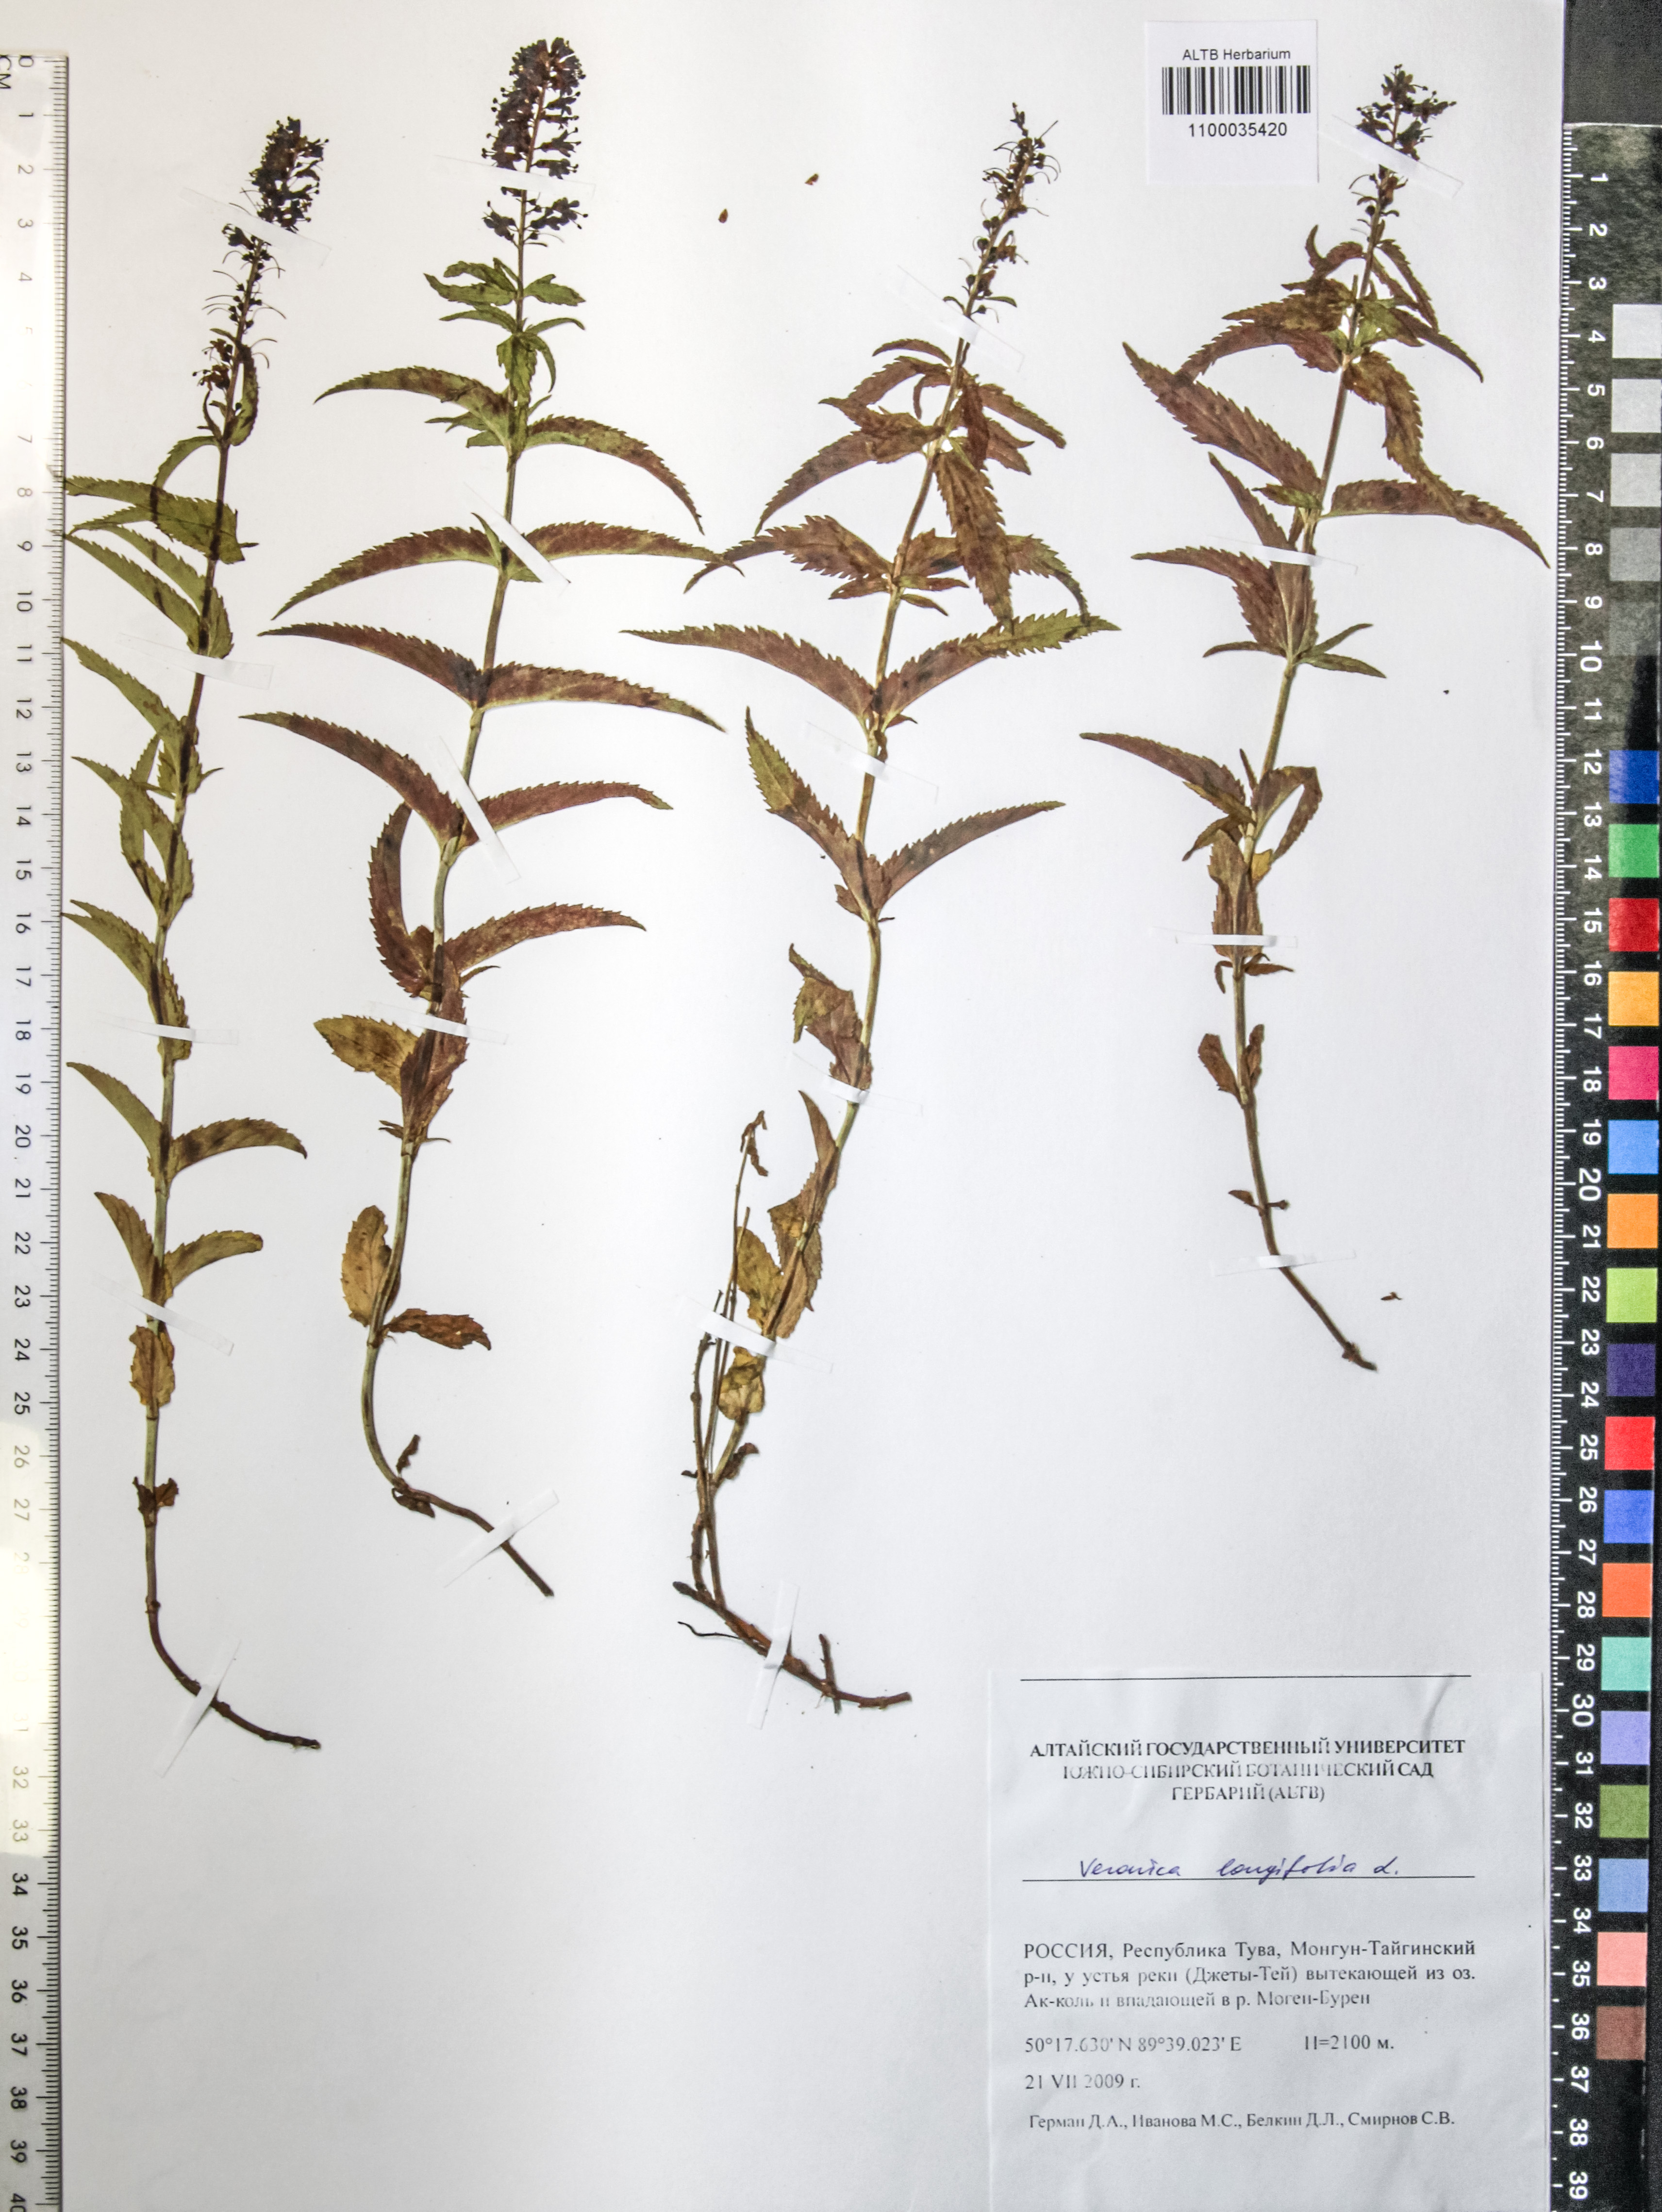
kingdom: Plantae
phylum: Tracheophyta
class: Magnoliopsida
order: Lamiales
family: Plantaginaceae
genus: Veronica
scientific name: Veronica longifolia
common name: Garden speedwell
